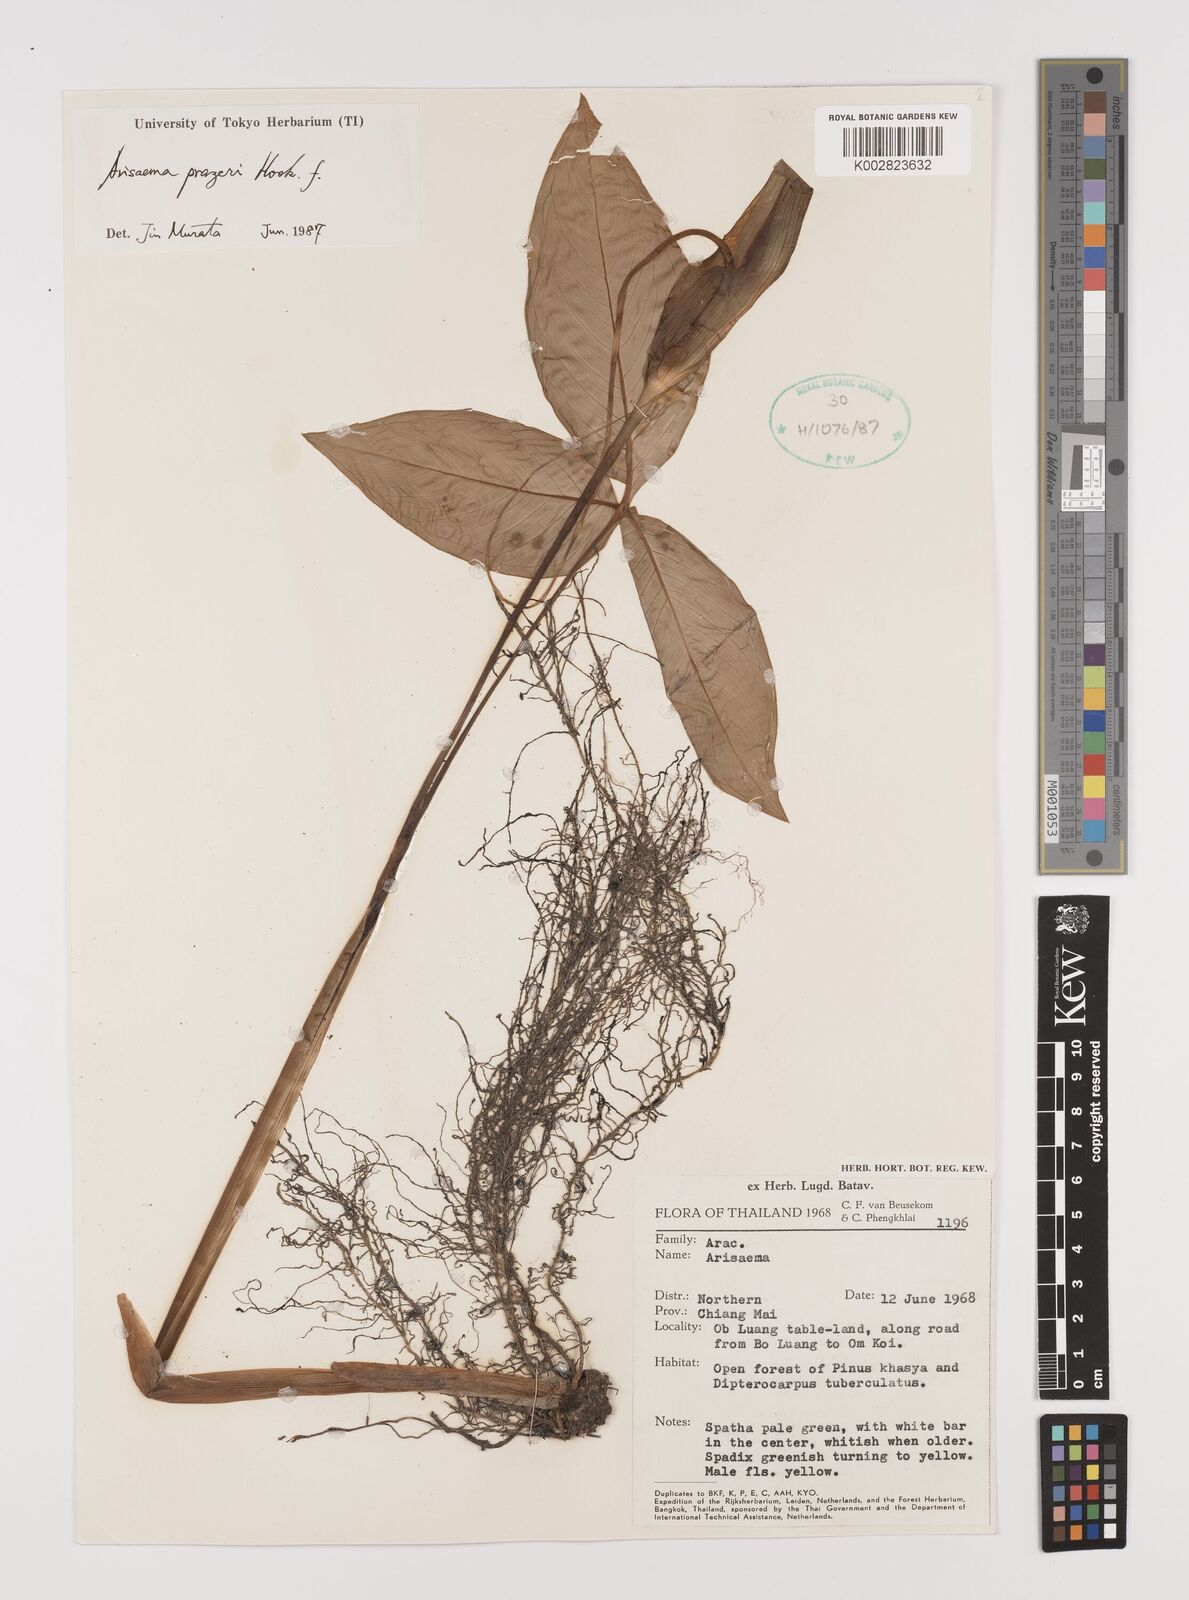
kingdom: Plantae
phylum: Tracheophyta
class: Liliopsida
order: Alismatales
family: Araceae
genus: Arisaema
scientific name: Arisaema prazeri
